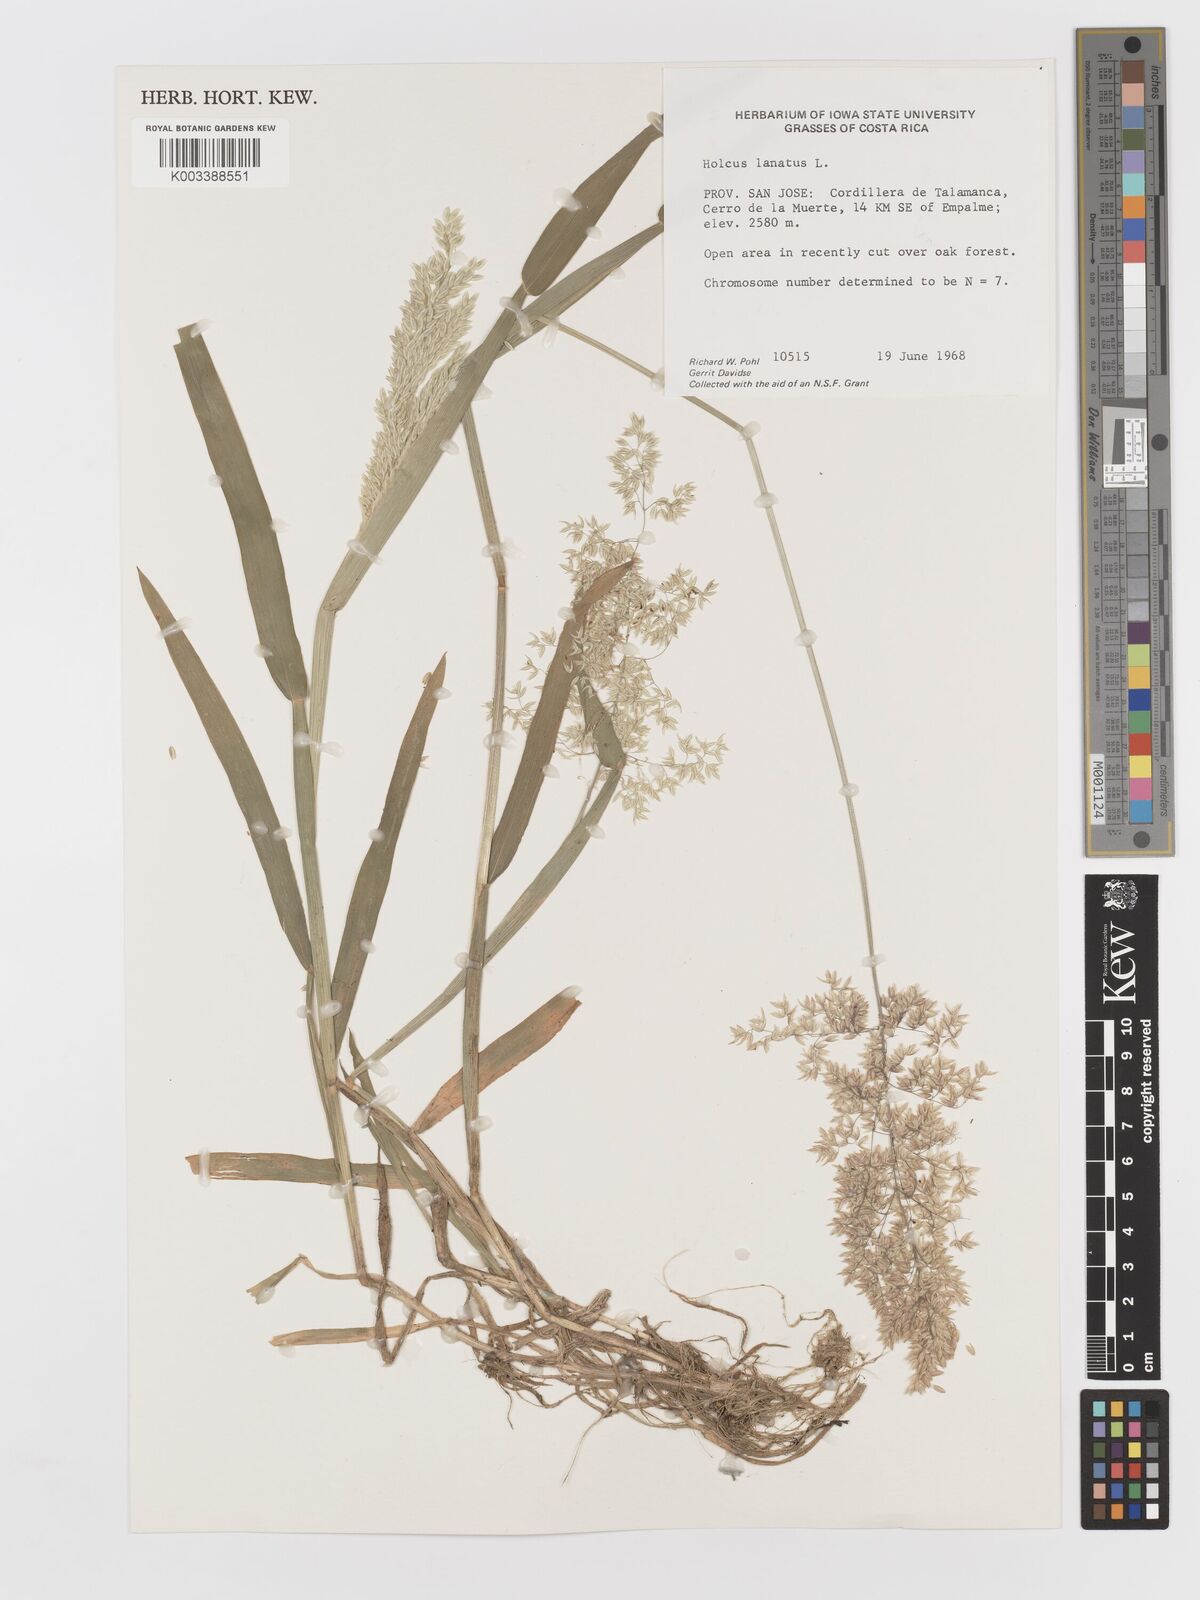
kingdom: Plantae
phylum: Tracheophyta
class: Liliopsida
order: Poales
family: Poaceae
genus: Holcus
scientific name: Holcus lanatus
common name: Yorkshire-fog
